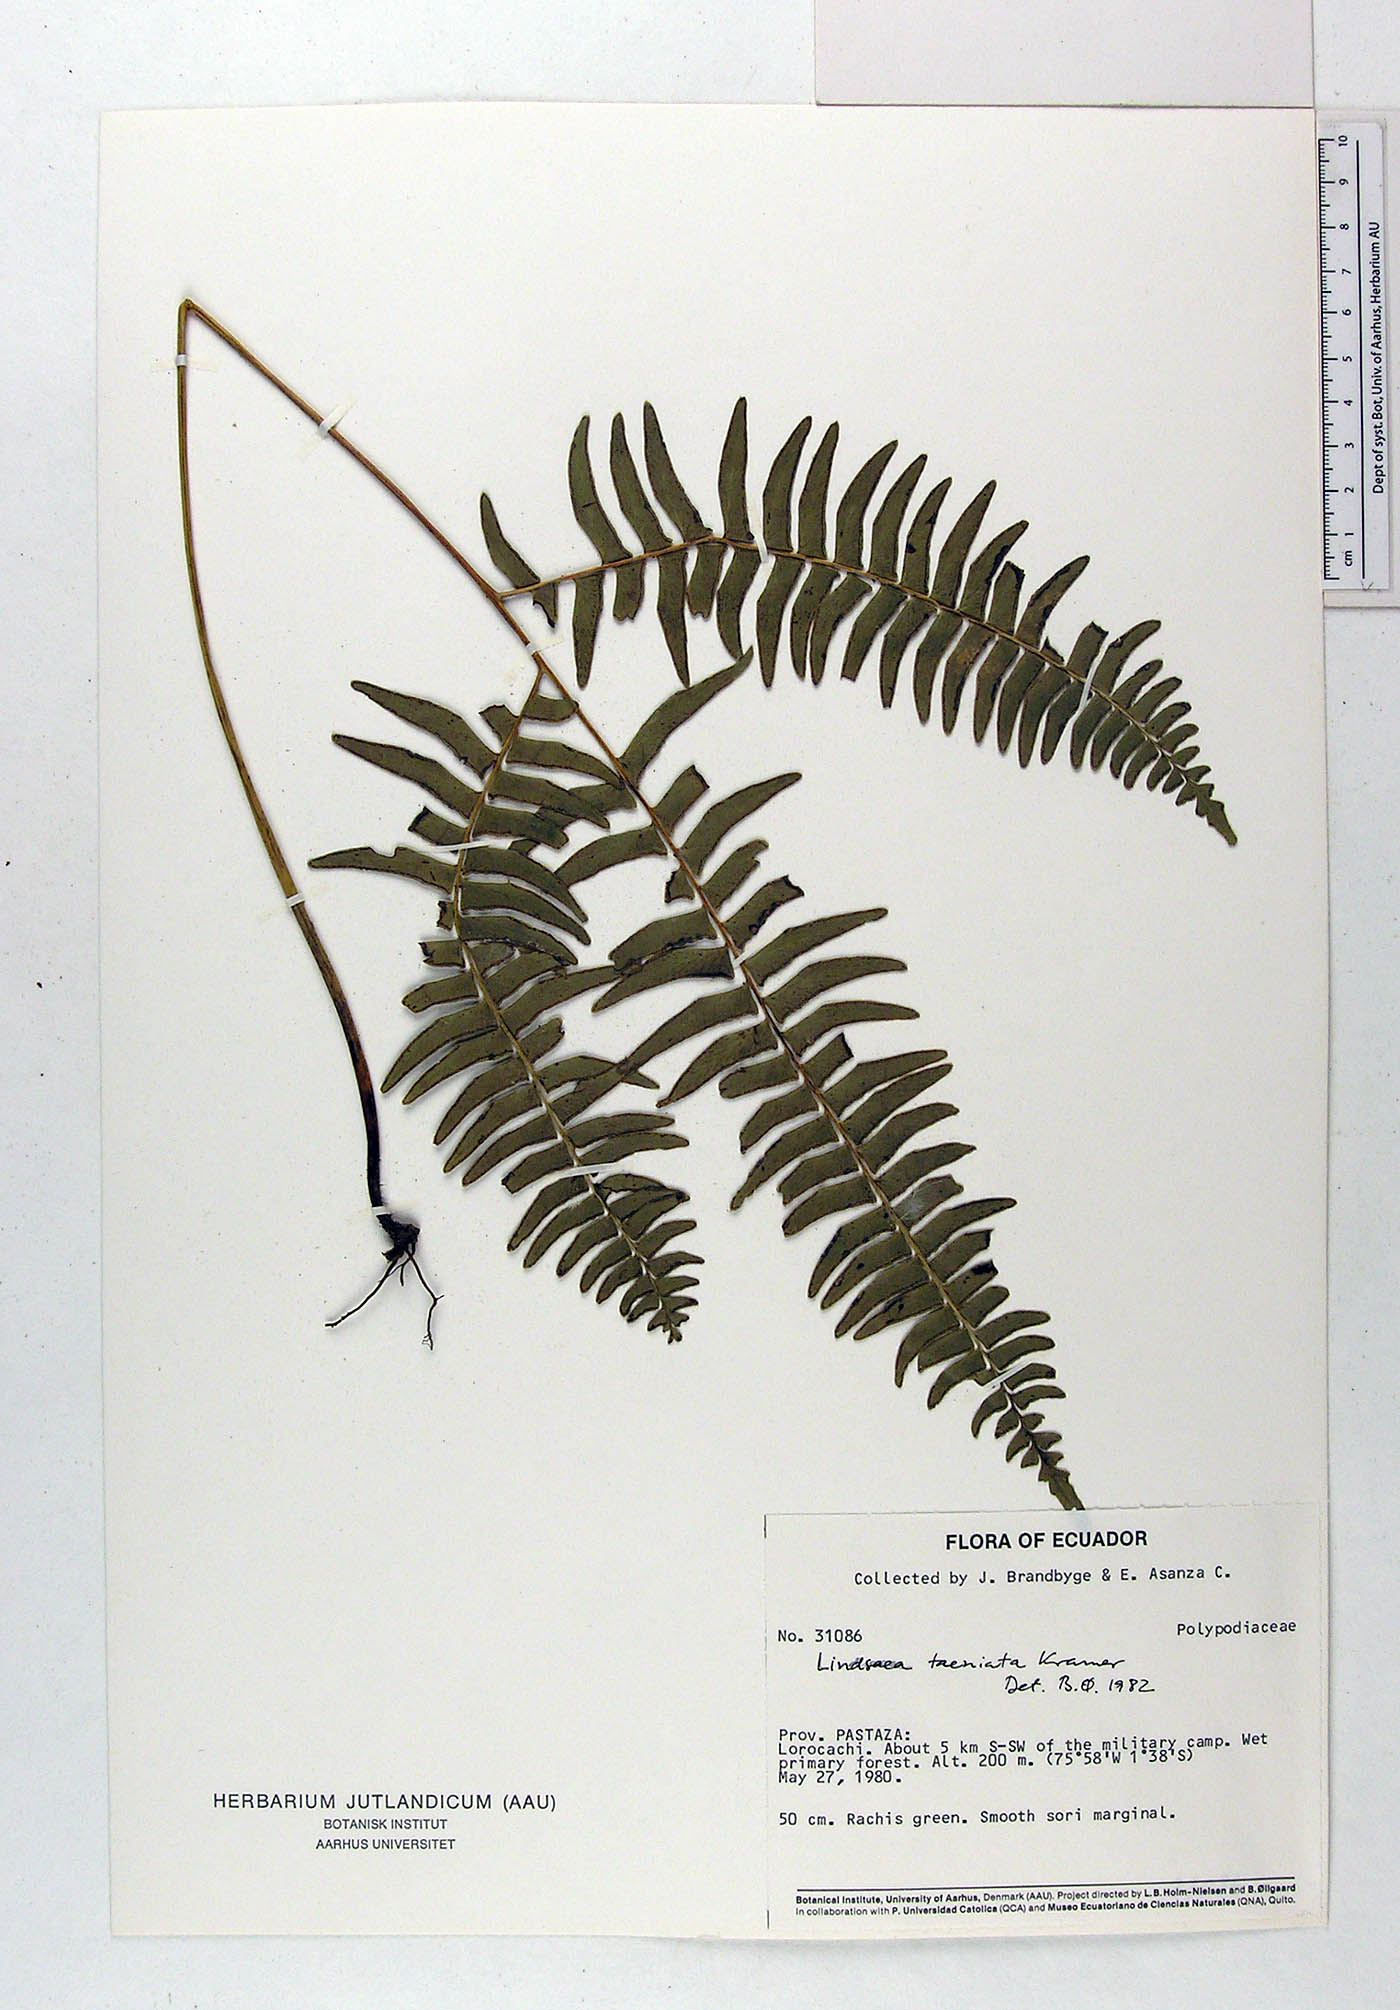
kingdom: Plantae
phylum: Tracheophyta
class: Polypodiopsida
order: Polypodiales
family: Lindsaeaceae
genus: Lindsaea
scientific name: Lindsaea taeniata
